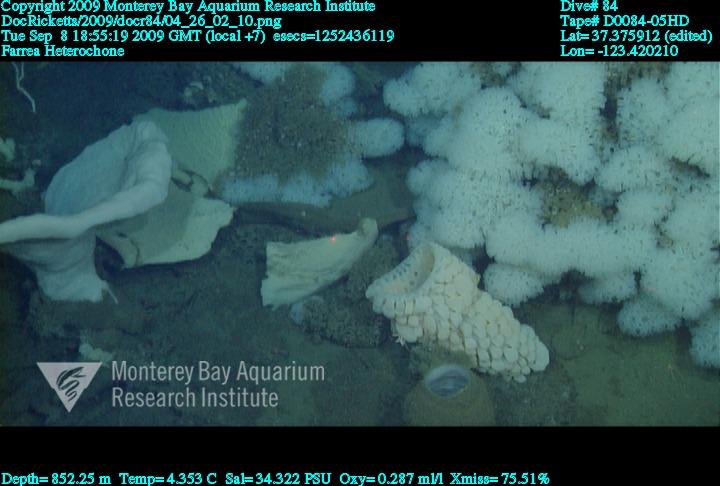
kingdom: Animalia
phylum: Porifera
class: Hexactinellida
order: Sceptrulophora
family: Farreidae
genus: Farrea
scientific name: Farrea
